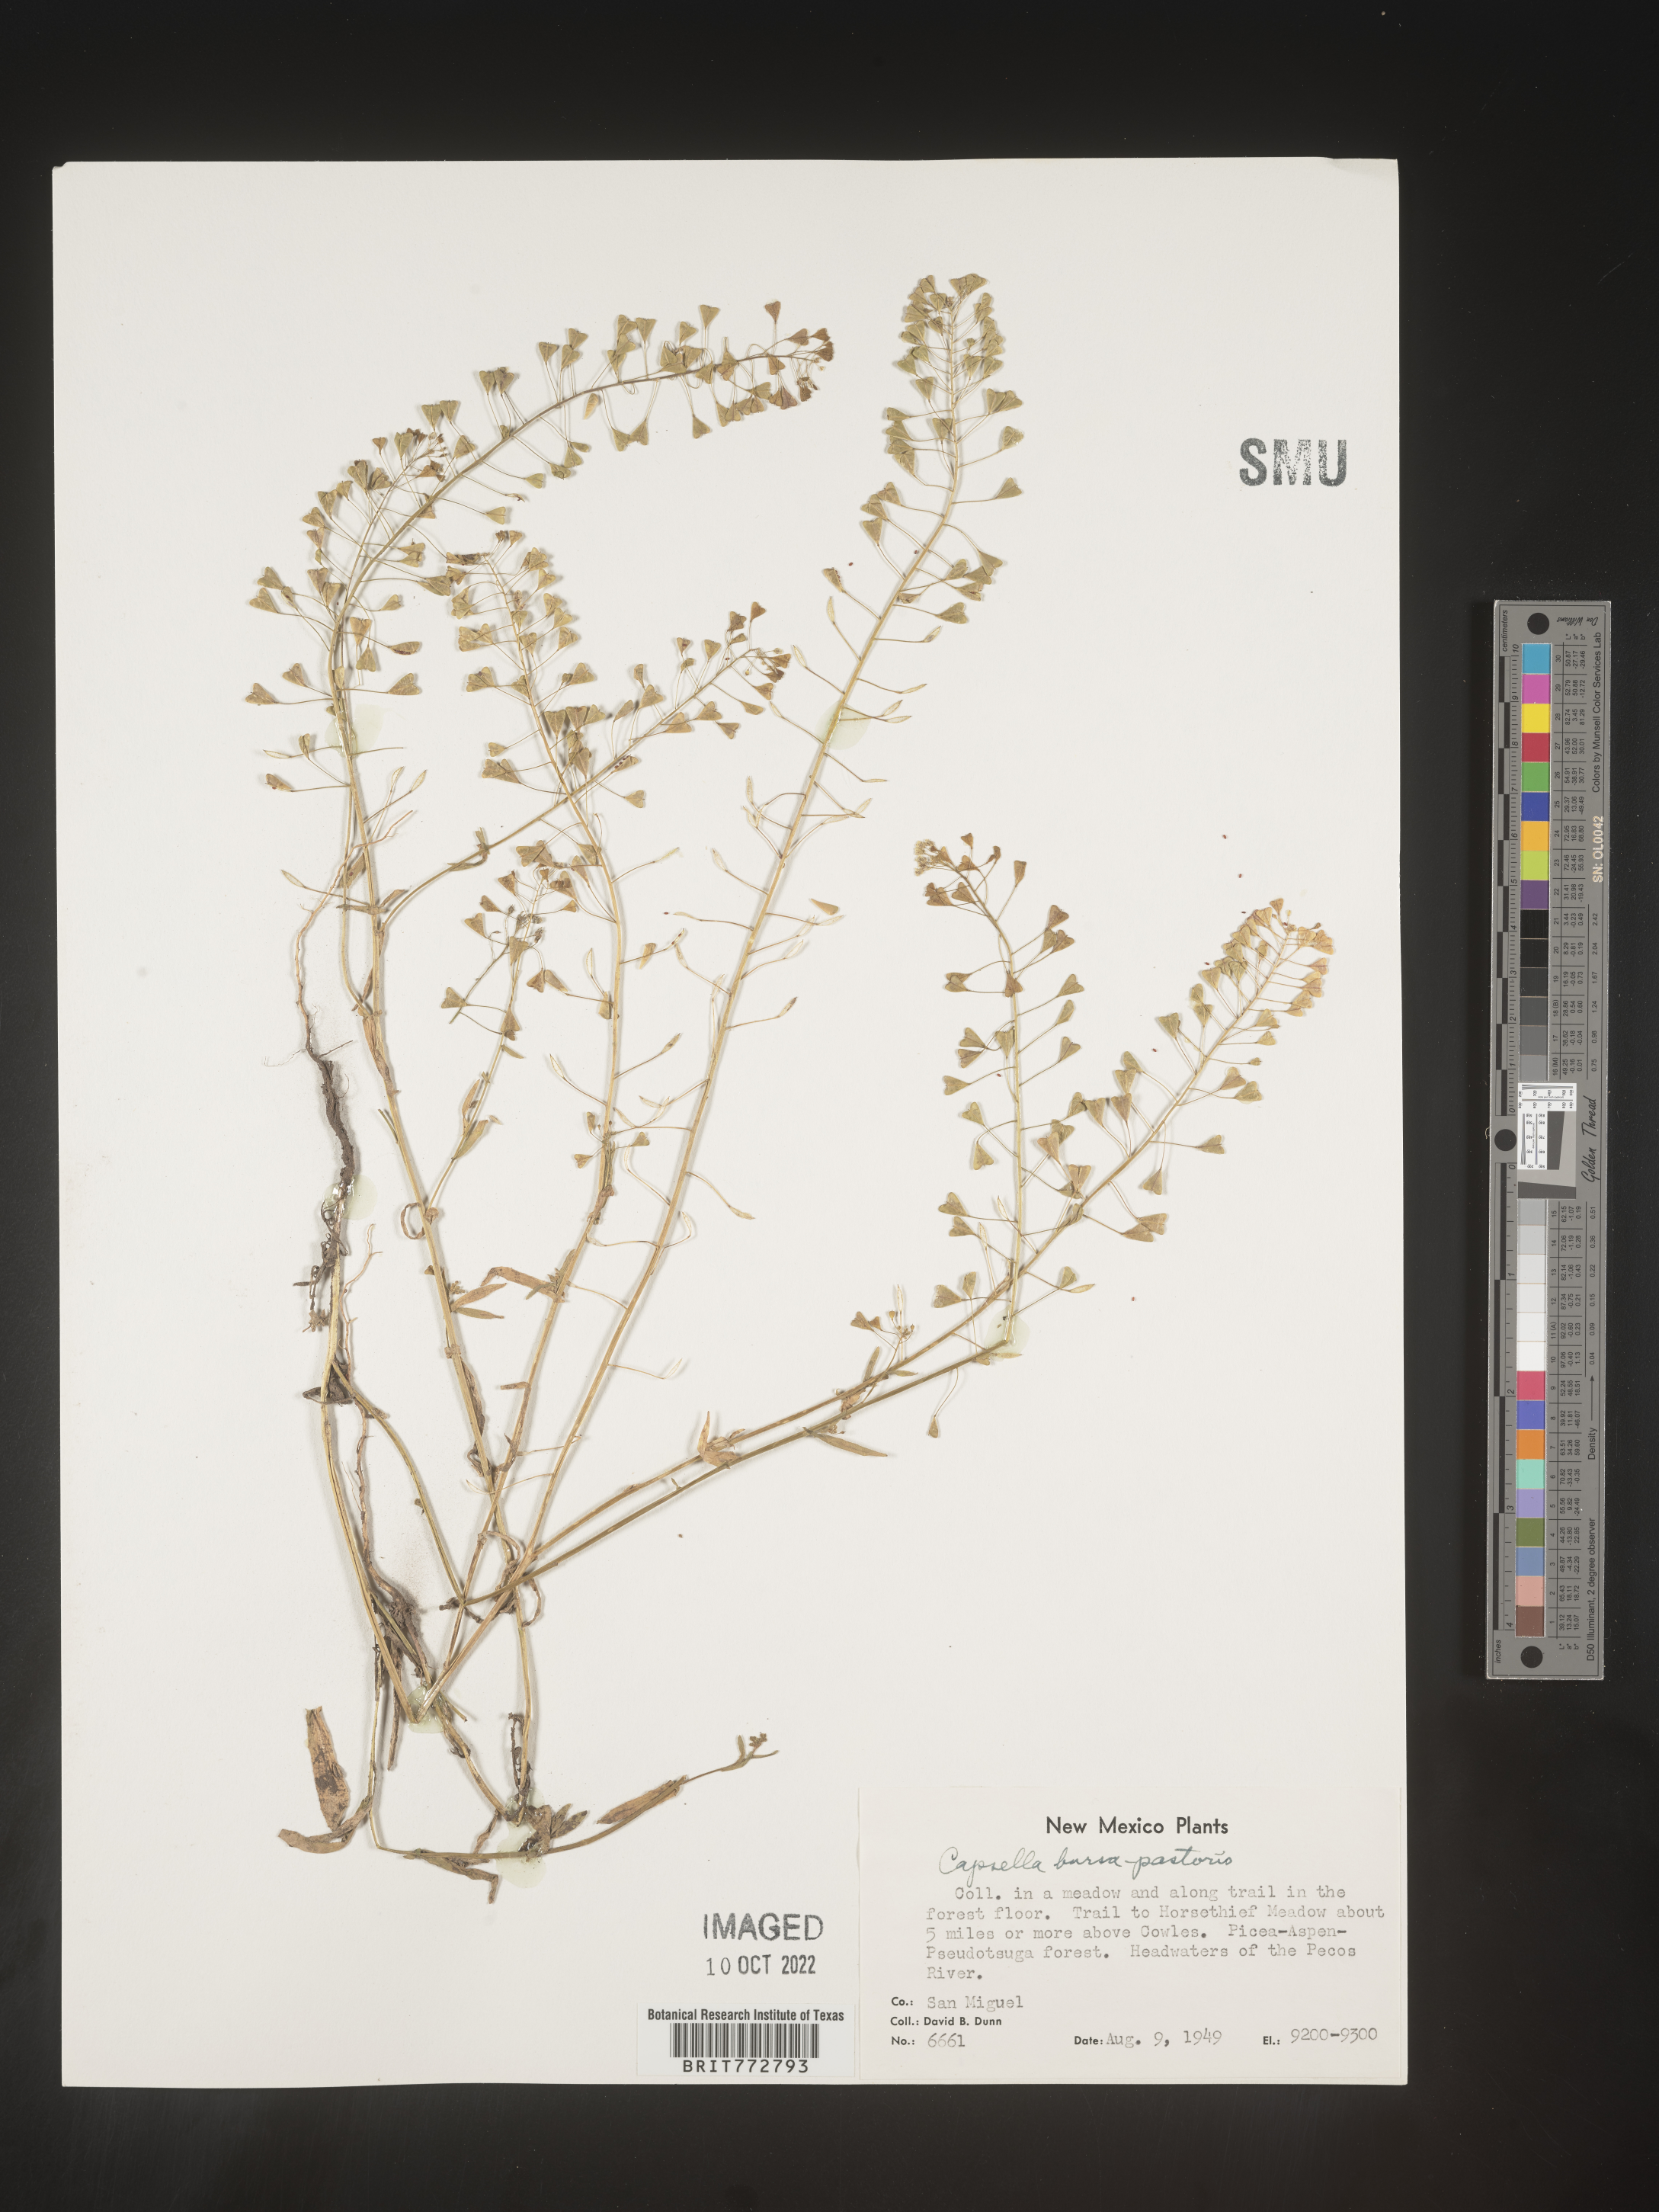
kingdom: Plantae
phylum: Tracheophyta
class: Magnoliopsida
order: Brassicales
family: Brassicaceae
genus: Capsella
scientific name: Capsella bursa-pastoris
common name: Shepherd's purse
